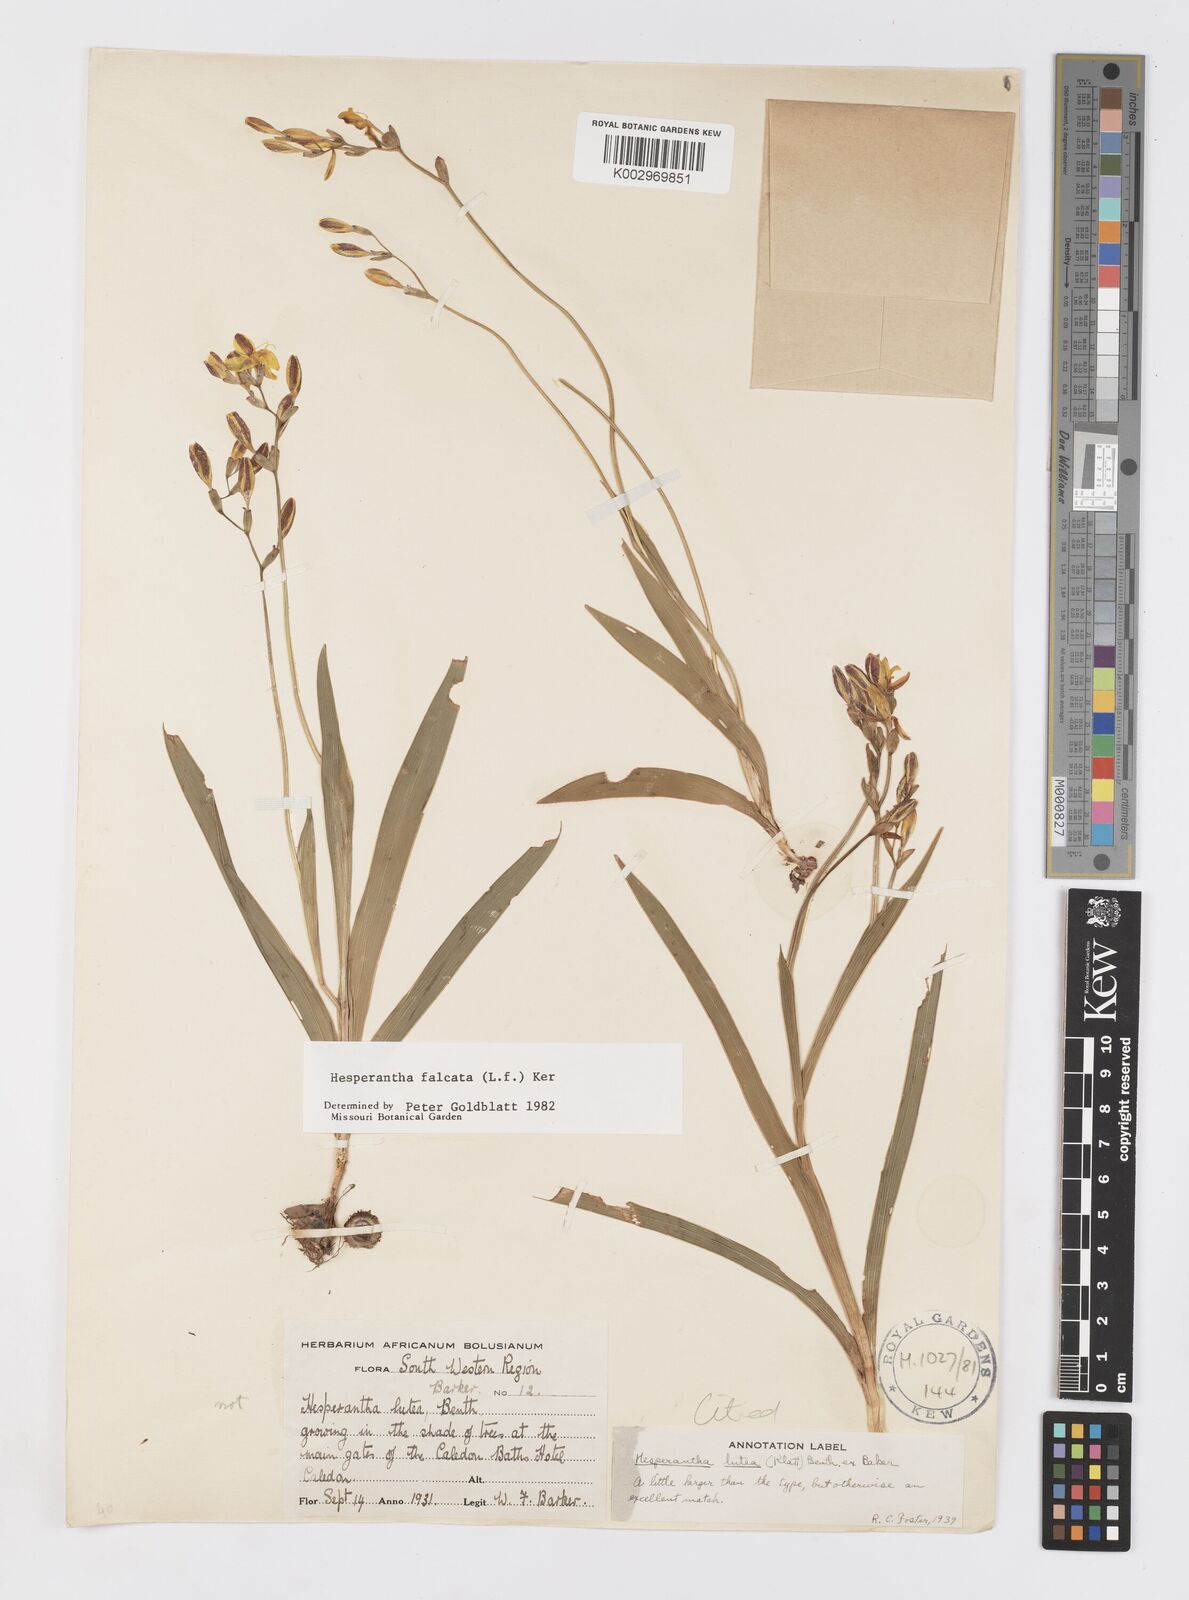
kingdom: Plantae
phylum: Tracheophyta
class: Liliopsida
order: Asparagales
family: Iridaceae
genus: Hesperantha
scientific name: Hesperantha falcata
